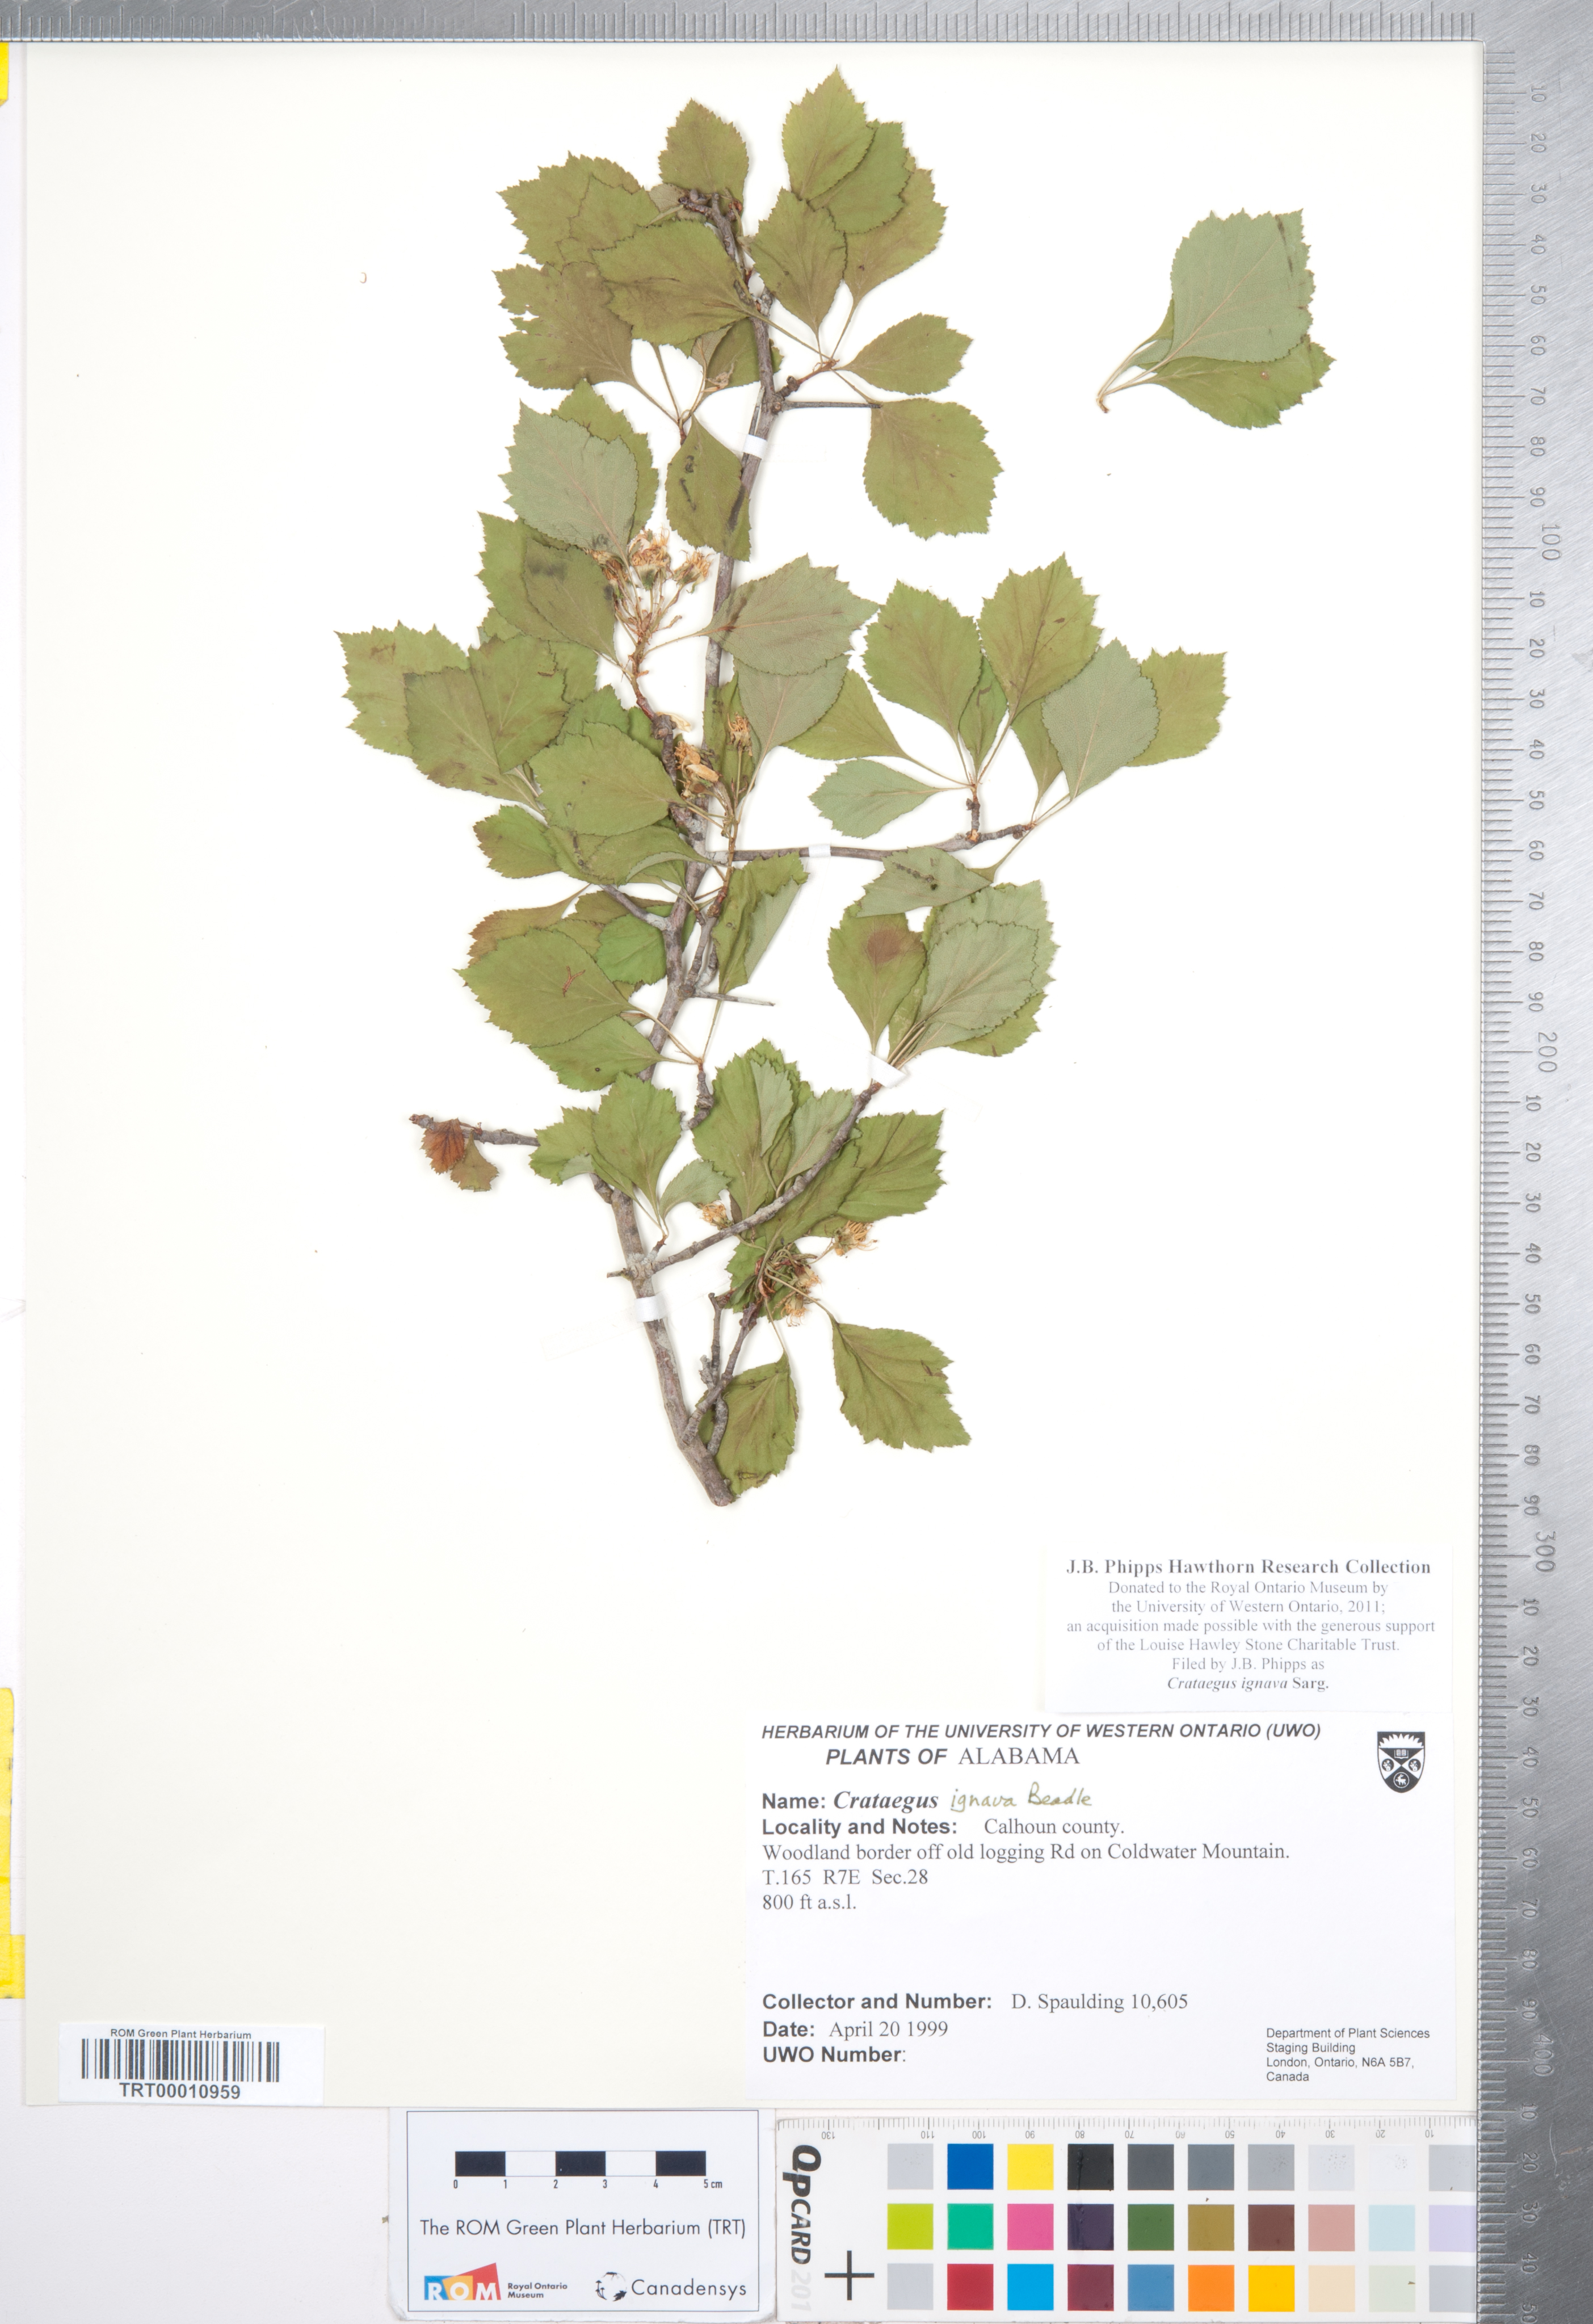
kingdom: Plantae
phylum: Tracheophyta
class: Magnoliopsida
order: Rosales
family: Rosaceae
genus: Crataegus
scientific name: Crataegus ignava
